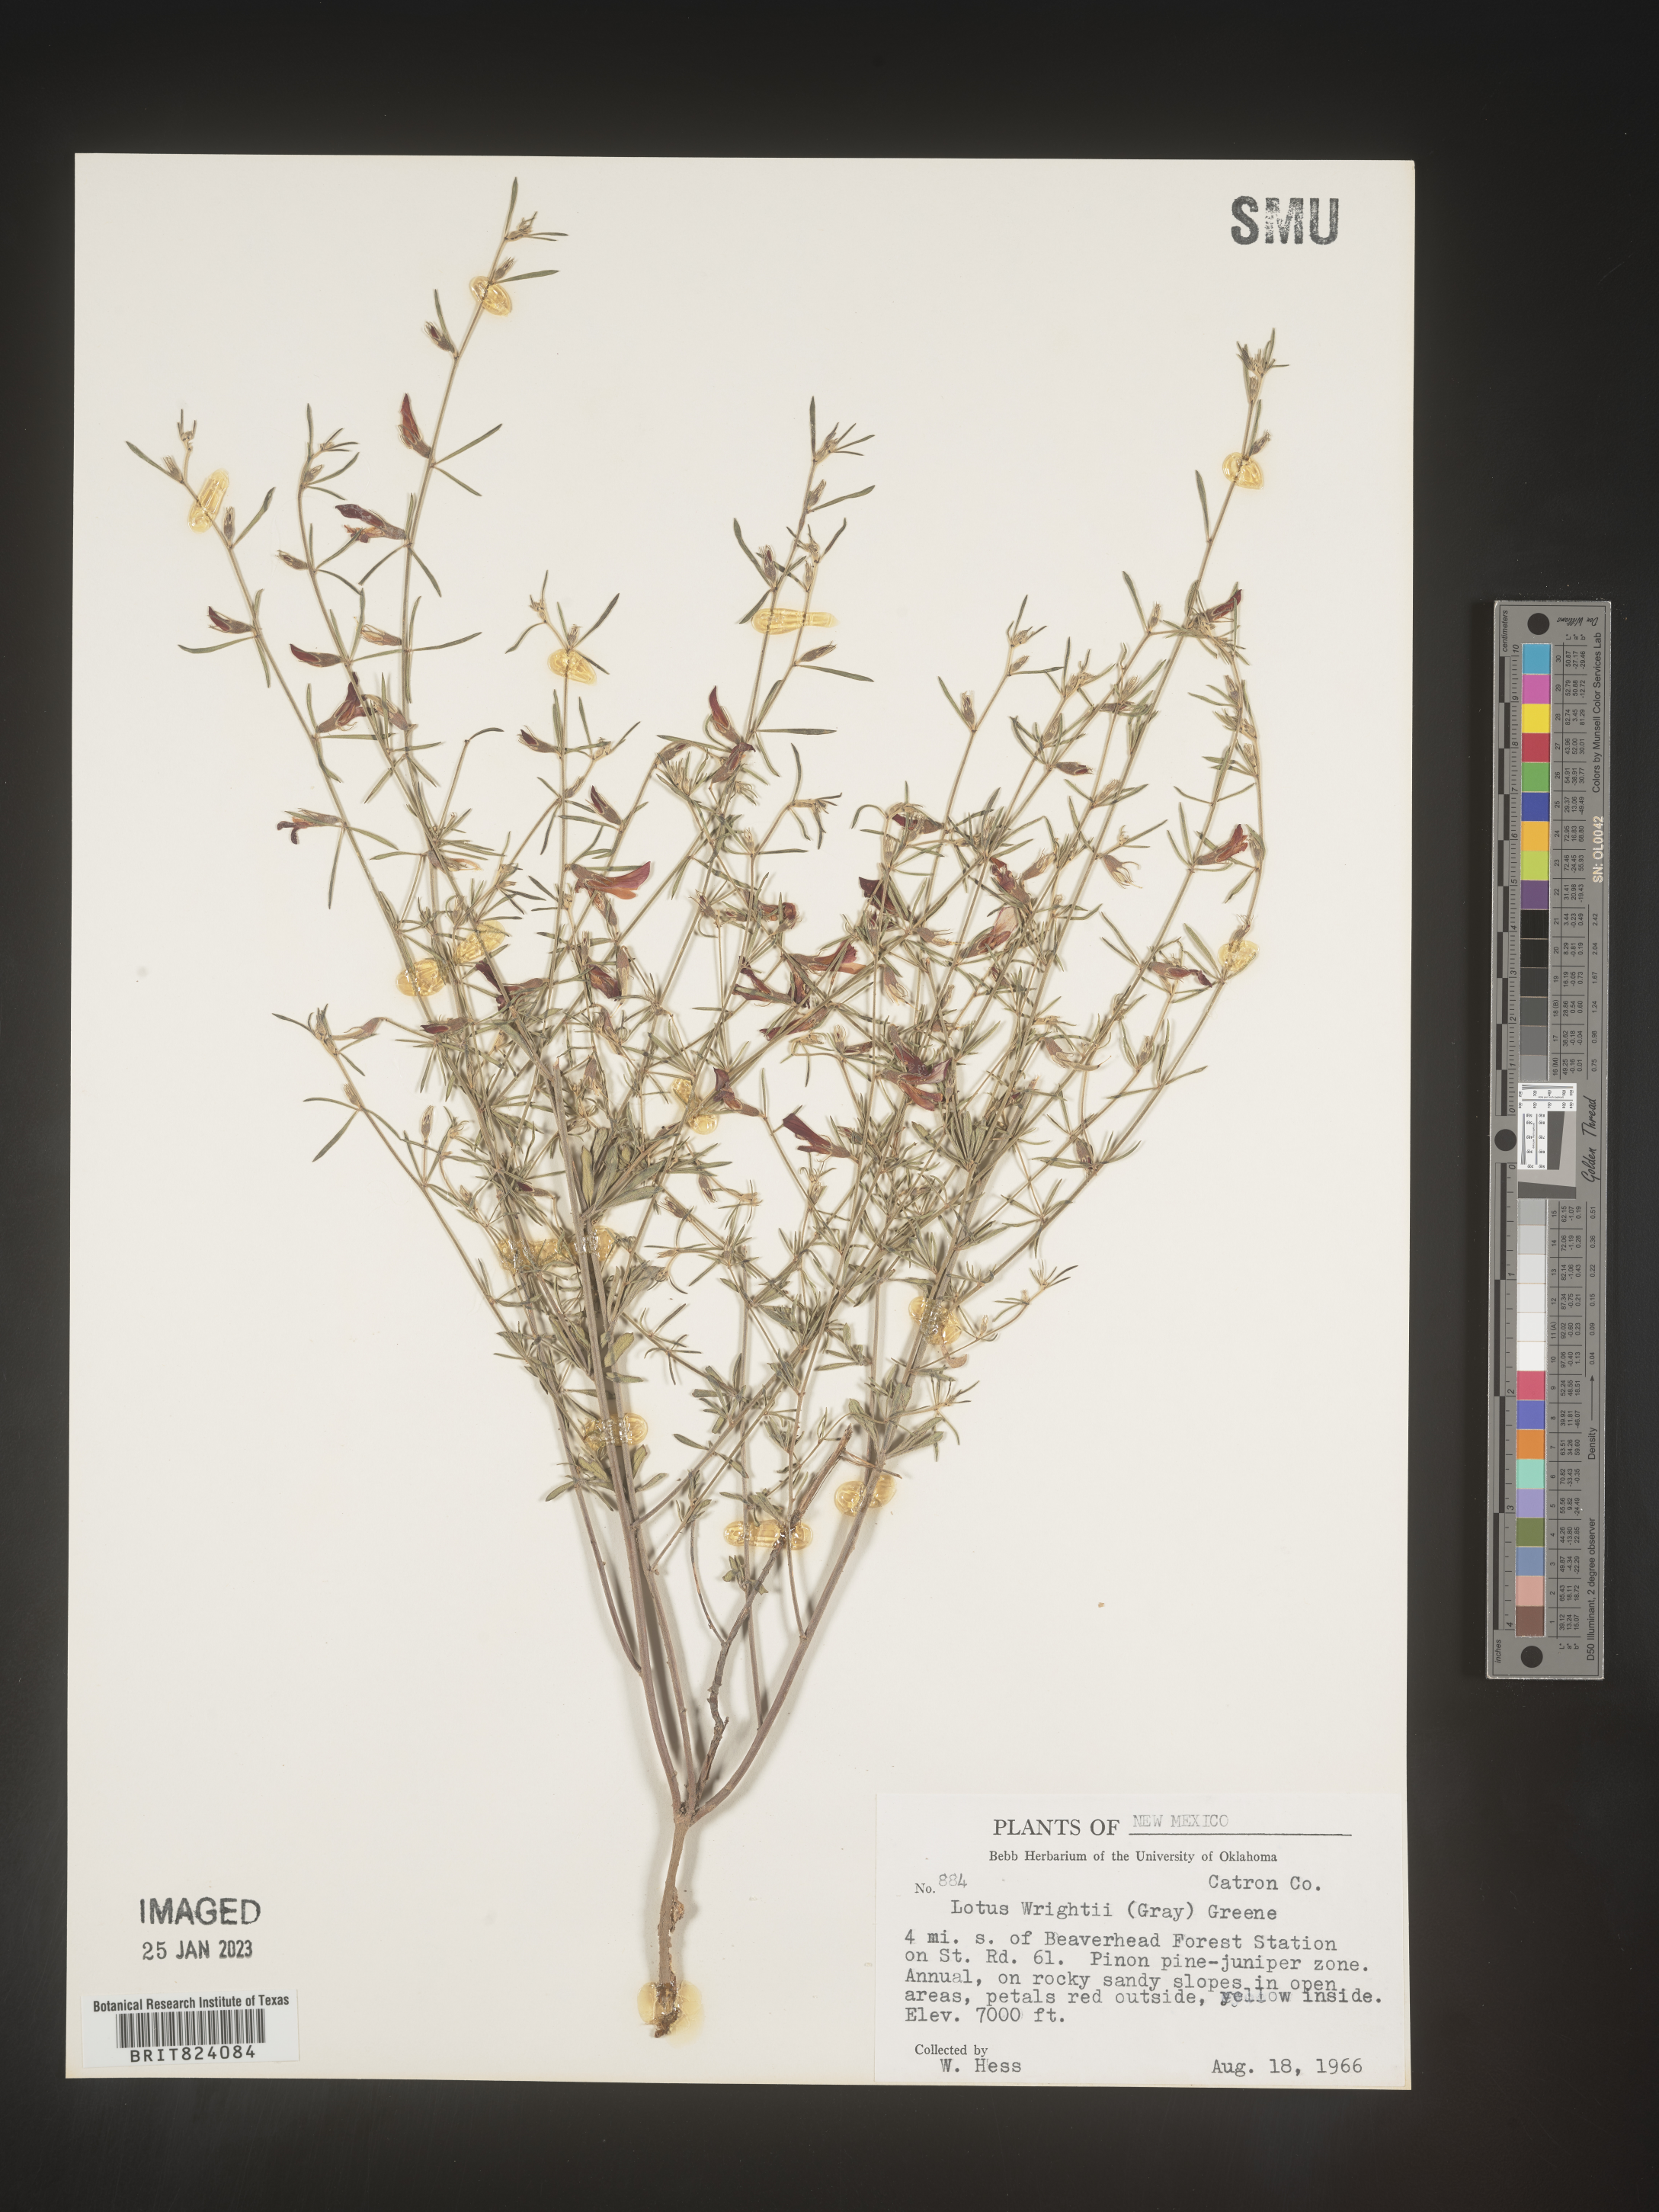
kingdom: Plantae
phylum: Tracheophyta
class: Magnoliopsida
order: Fabales
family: Fabaceae
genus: Acmispon
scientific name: Acmispon wrightii
